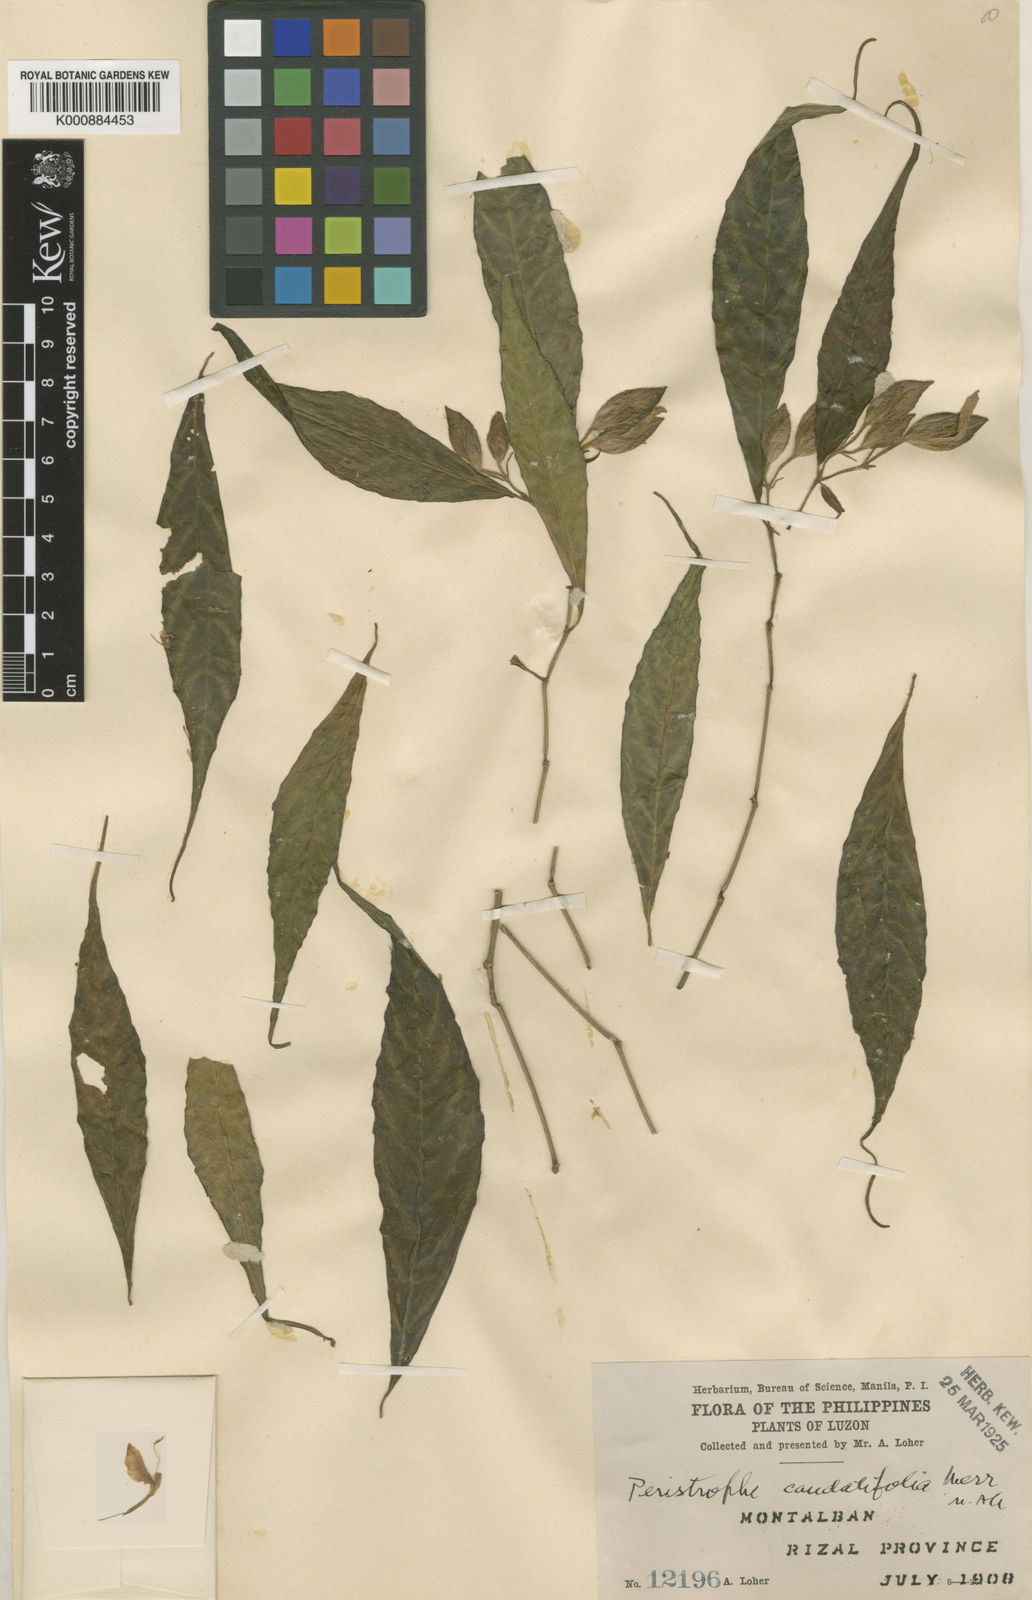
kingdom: Plantae
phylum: Tracheophyta
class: Magnoliopsida
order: Lamiales
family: Acanthaceae
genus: Dicliptera
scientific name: Dicliptera
